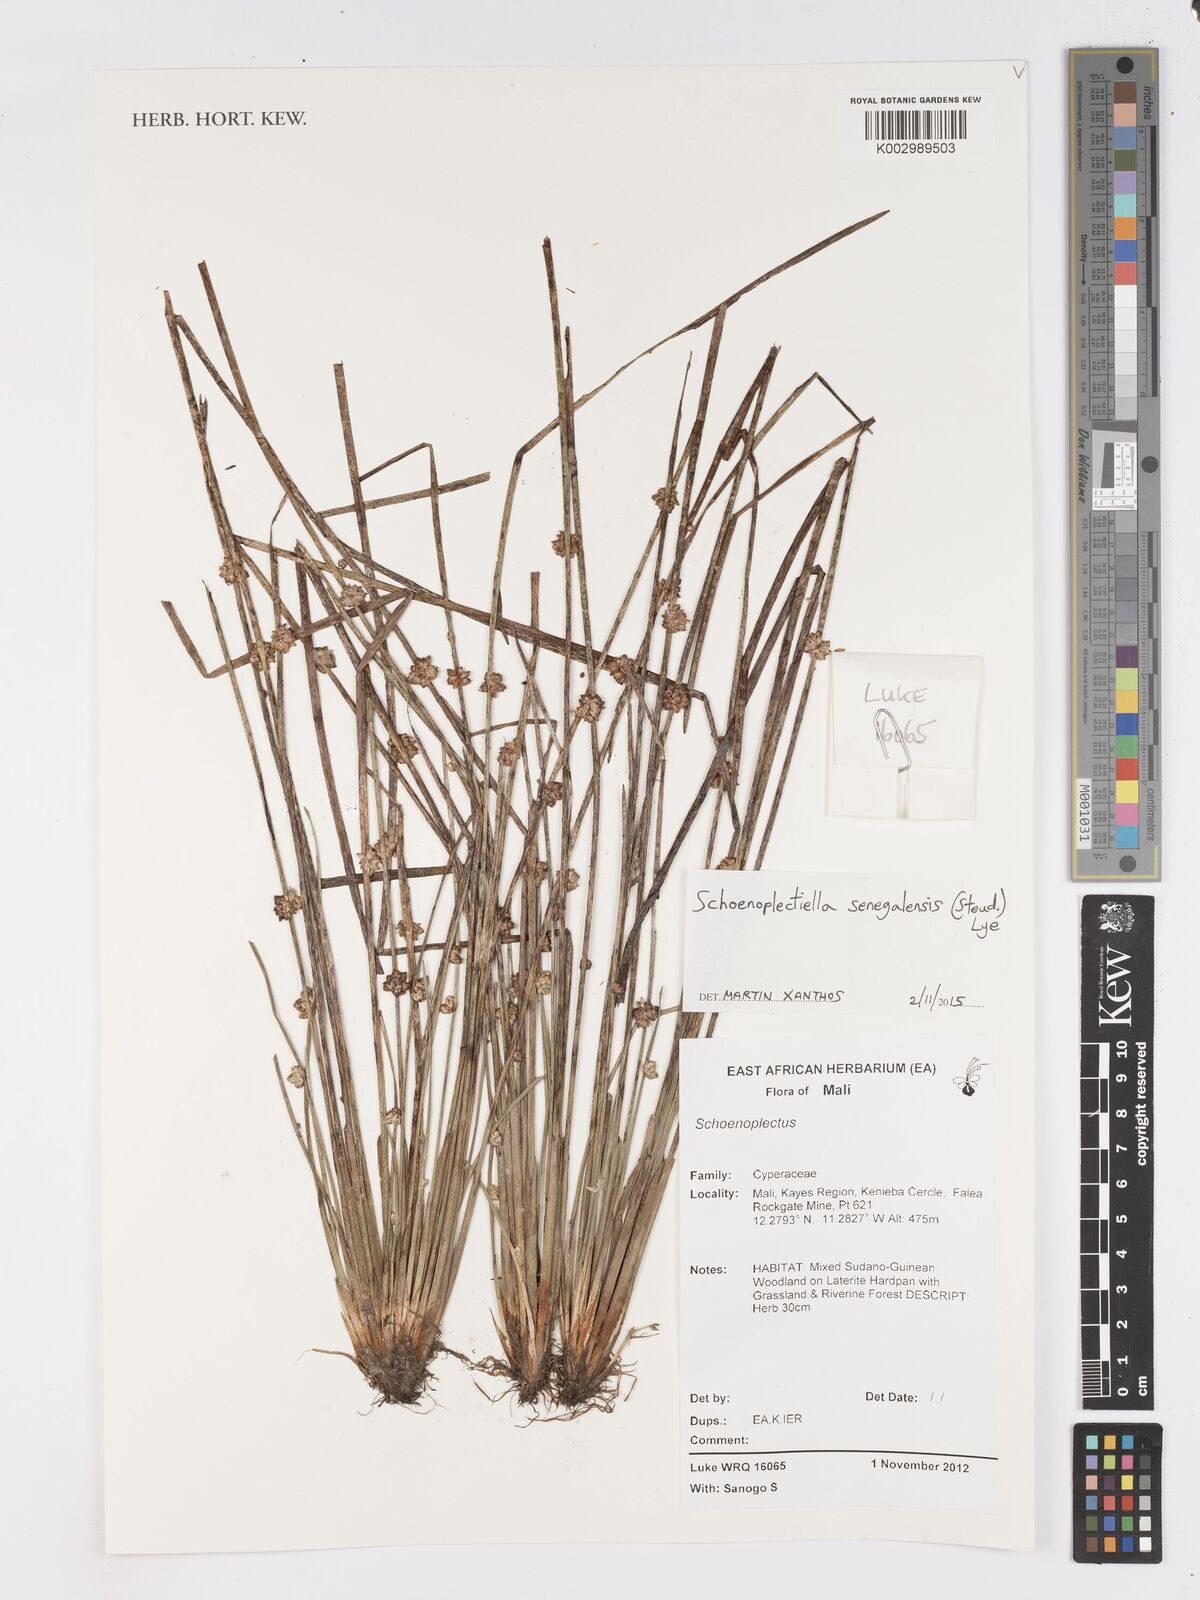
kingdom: Plantae
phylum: Tracheophyta
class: Liliopsida
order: Poales
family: Cyperaceae
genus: Schoenoplectiella
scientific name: Schoenoplectiella senegalensis
